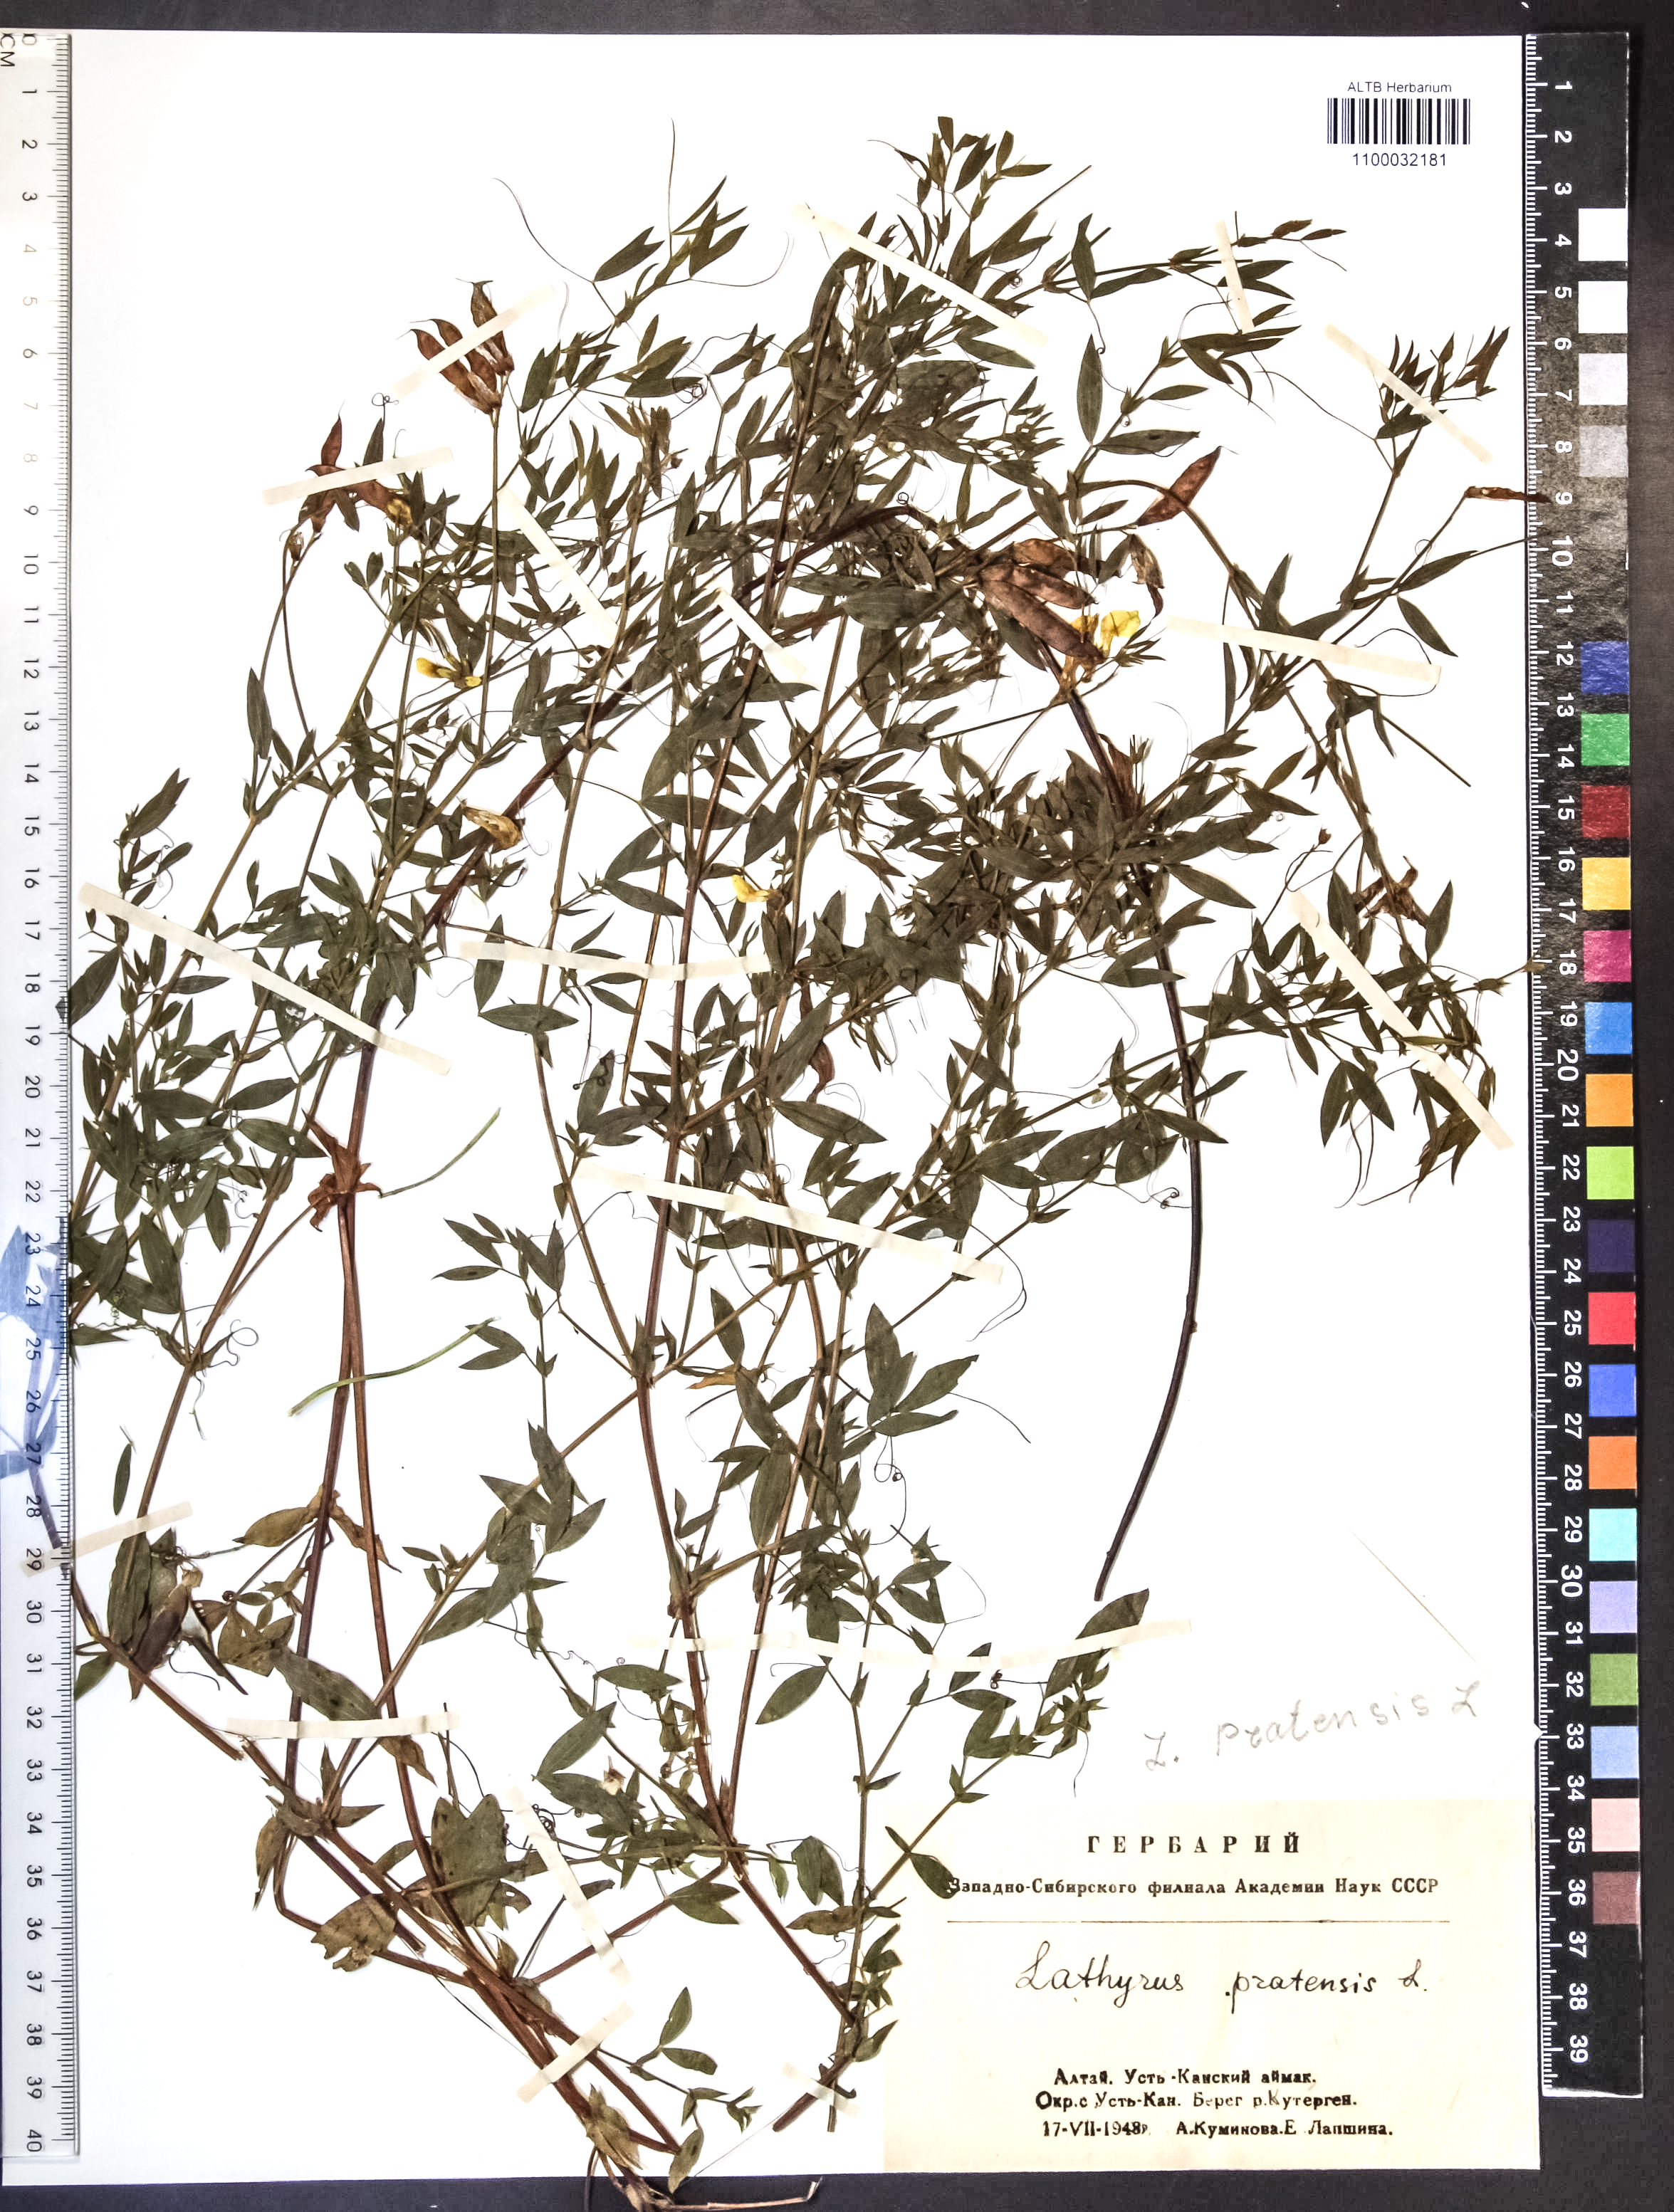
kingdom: Plantae
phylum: Tracheophyta
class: Magnoliopsida
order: Fabales
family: Fabaceae
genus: Lathyrus
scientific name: Lathyrus pratensis
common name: Meadow vetchling
